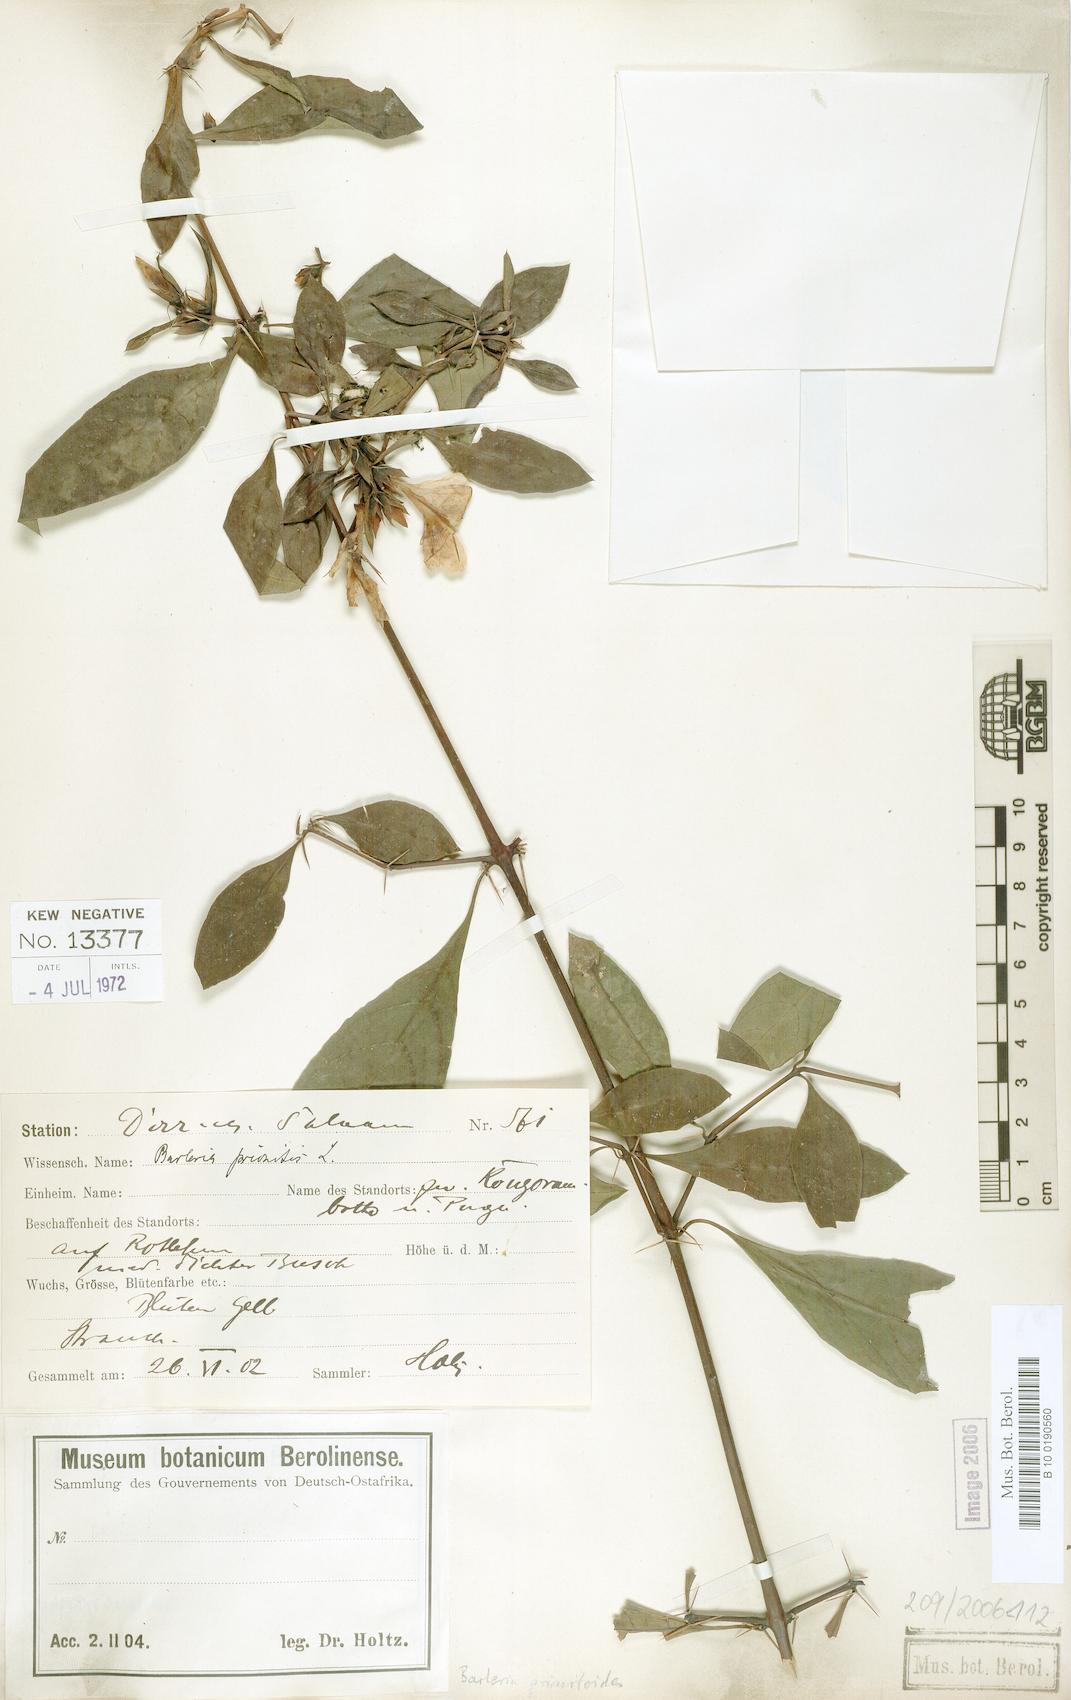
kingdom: Plantae
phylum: Tracheophyta
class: Magnoliopsida
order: Lamiales
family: Acanthaceae
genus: Barleria
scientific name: Barleria prionitis
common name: Barleria
